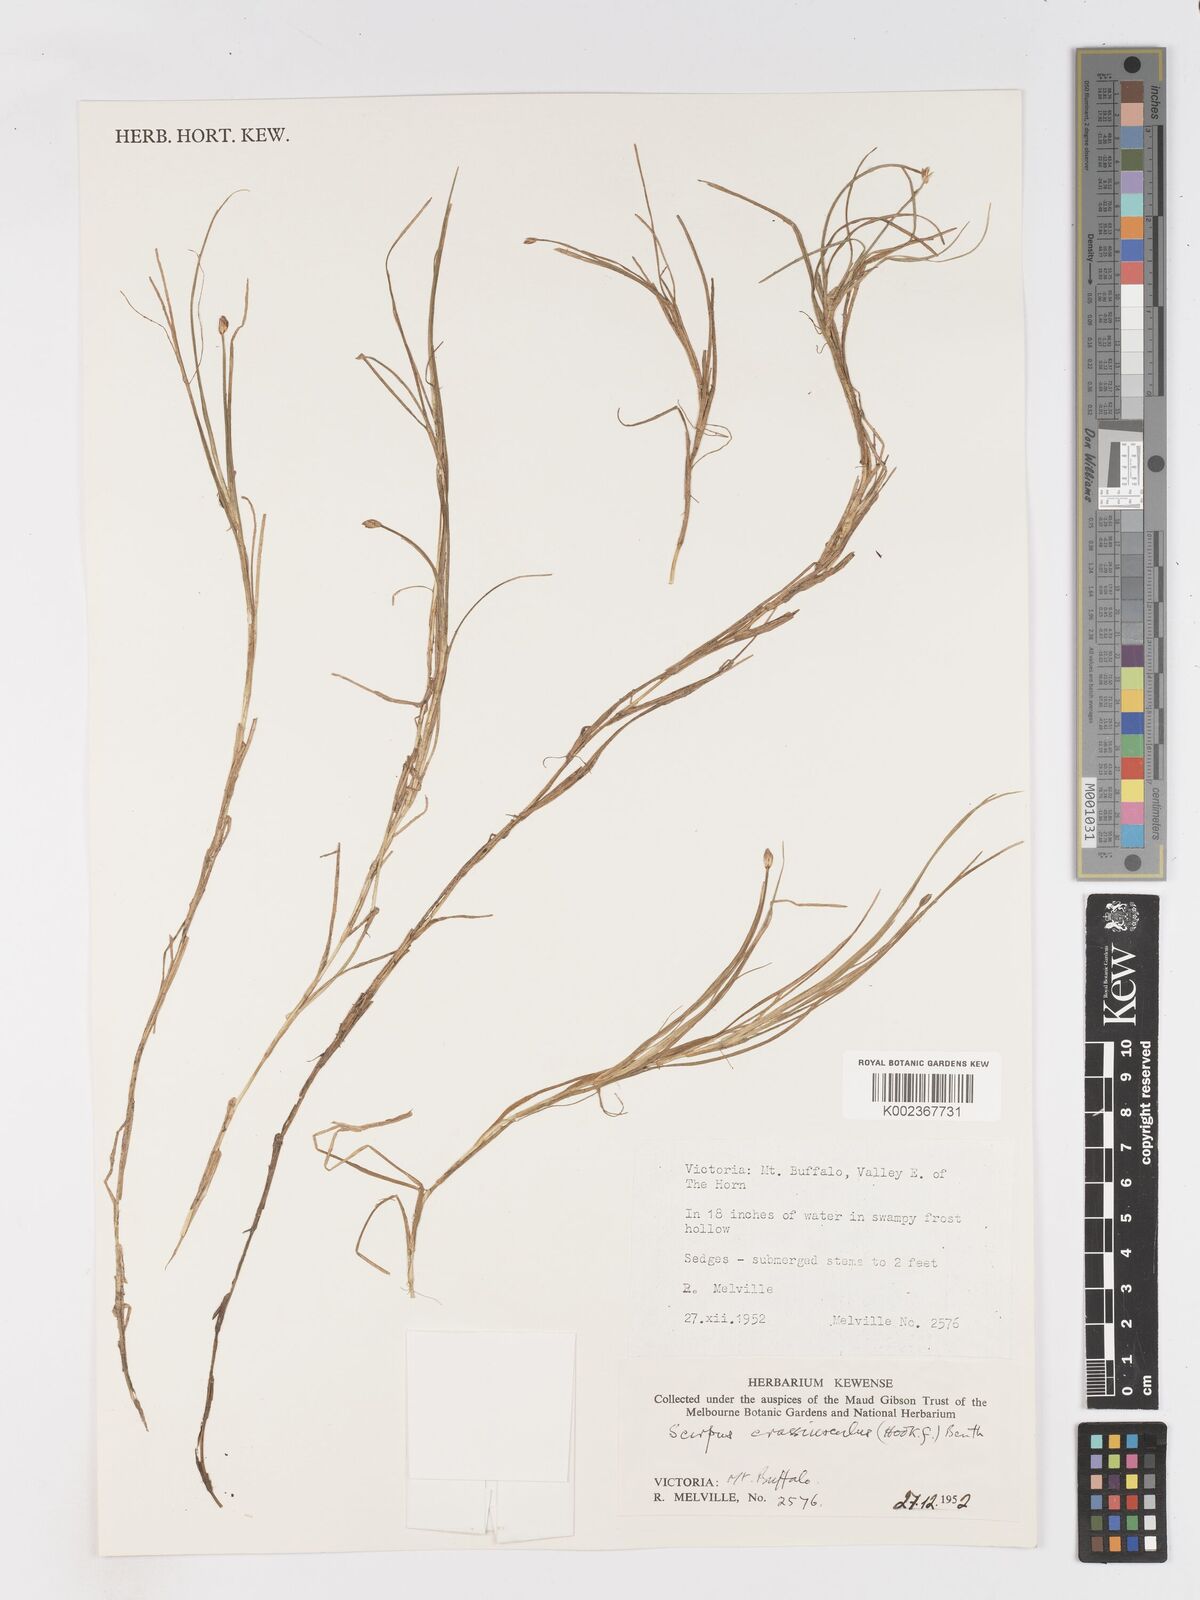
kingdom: Plantae
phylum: Tracheophyta
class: Liliopsida
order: Poales
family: Cyperaceae
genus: Isolepis
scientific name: Isolepis crassiuscula
